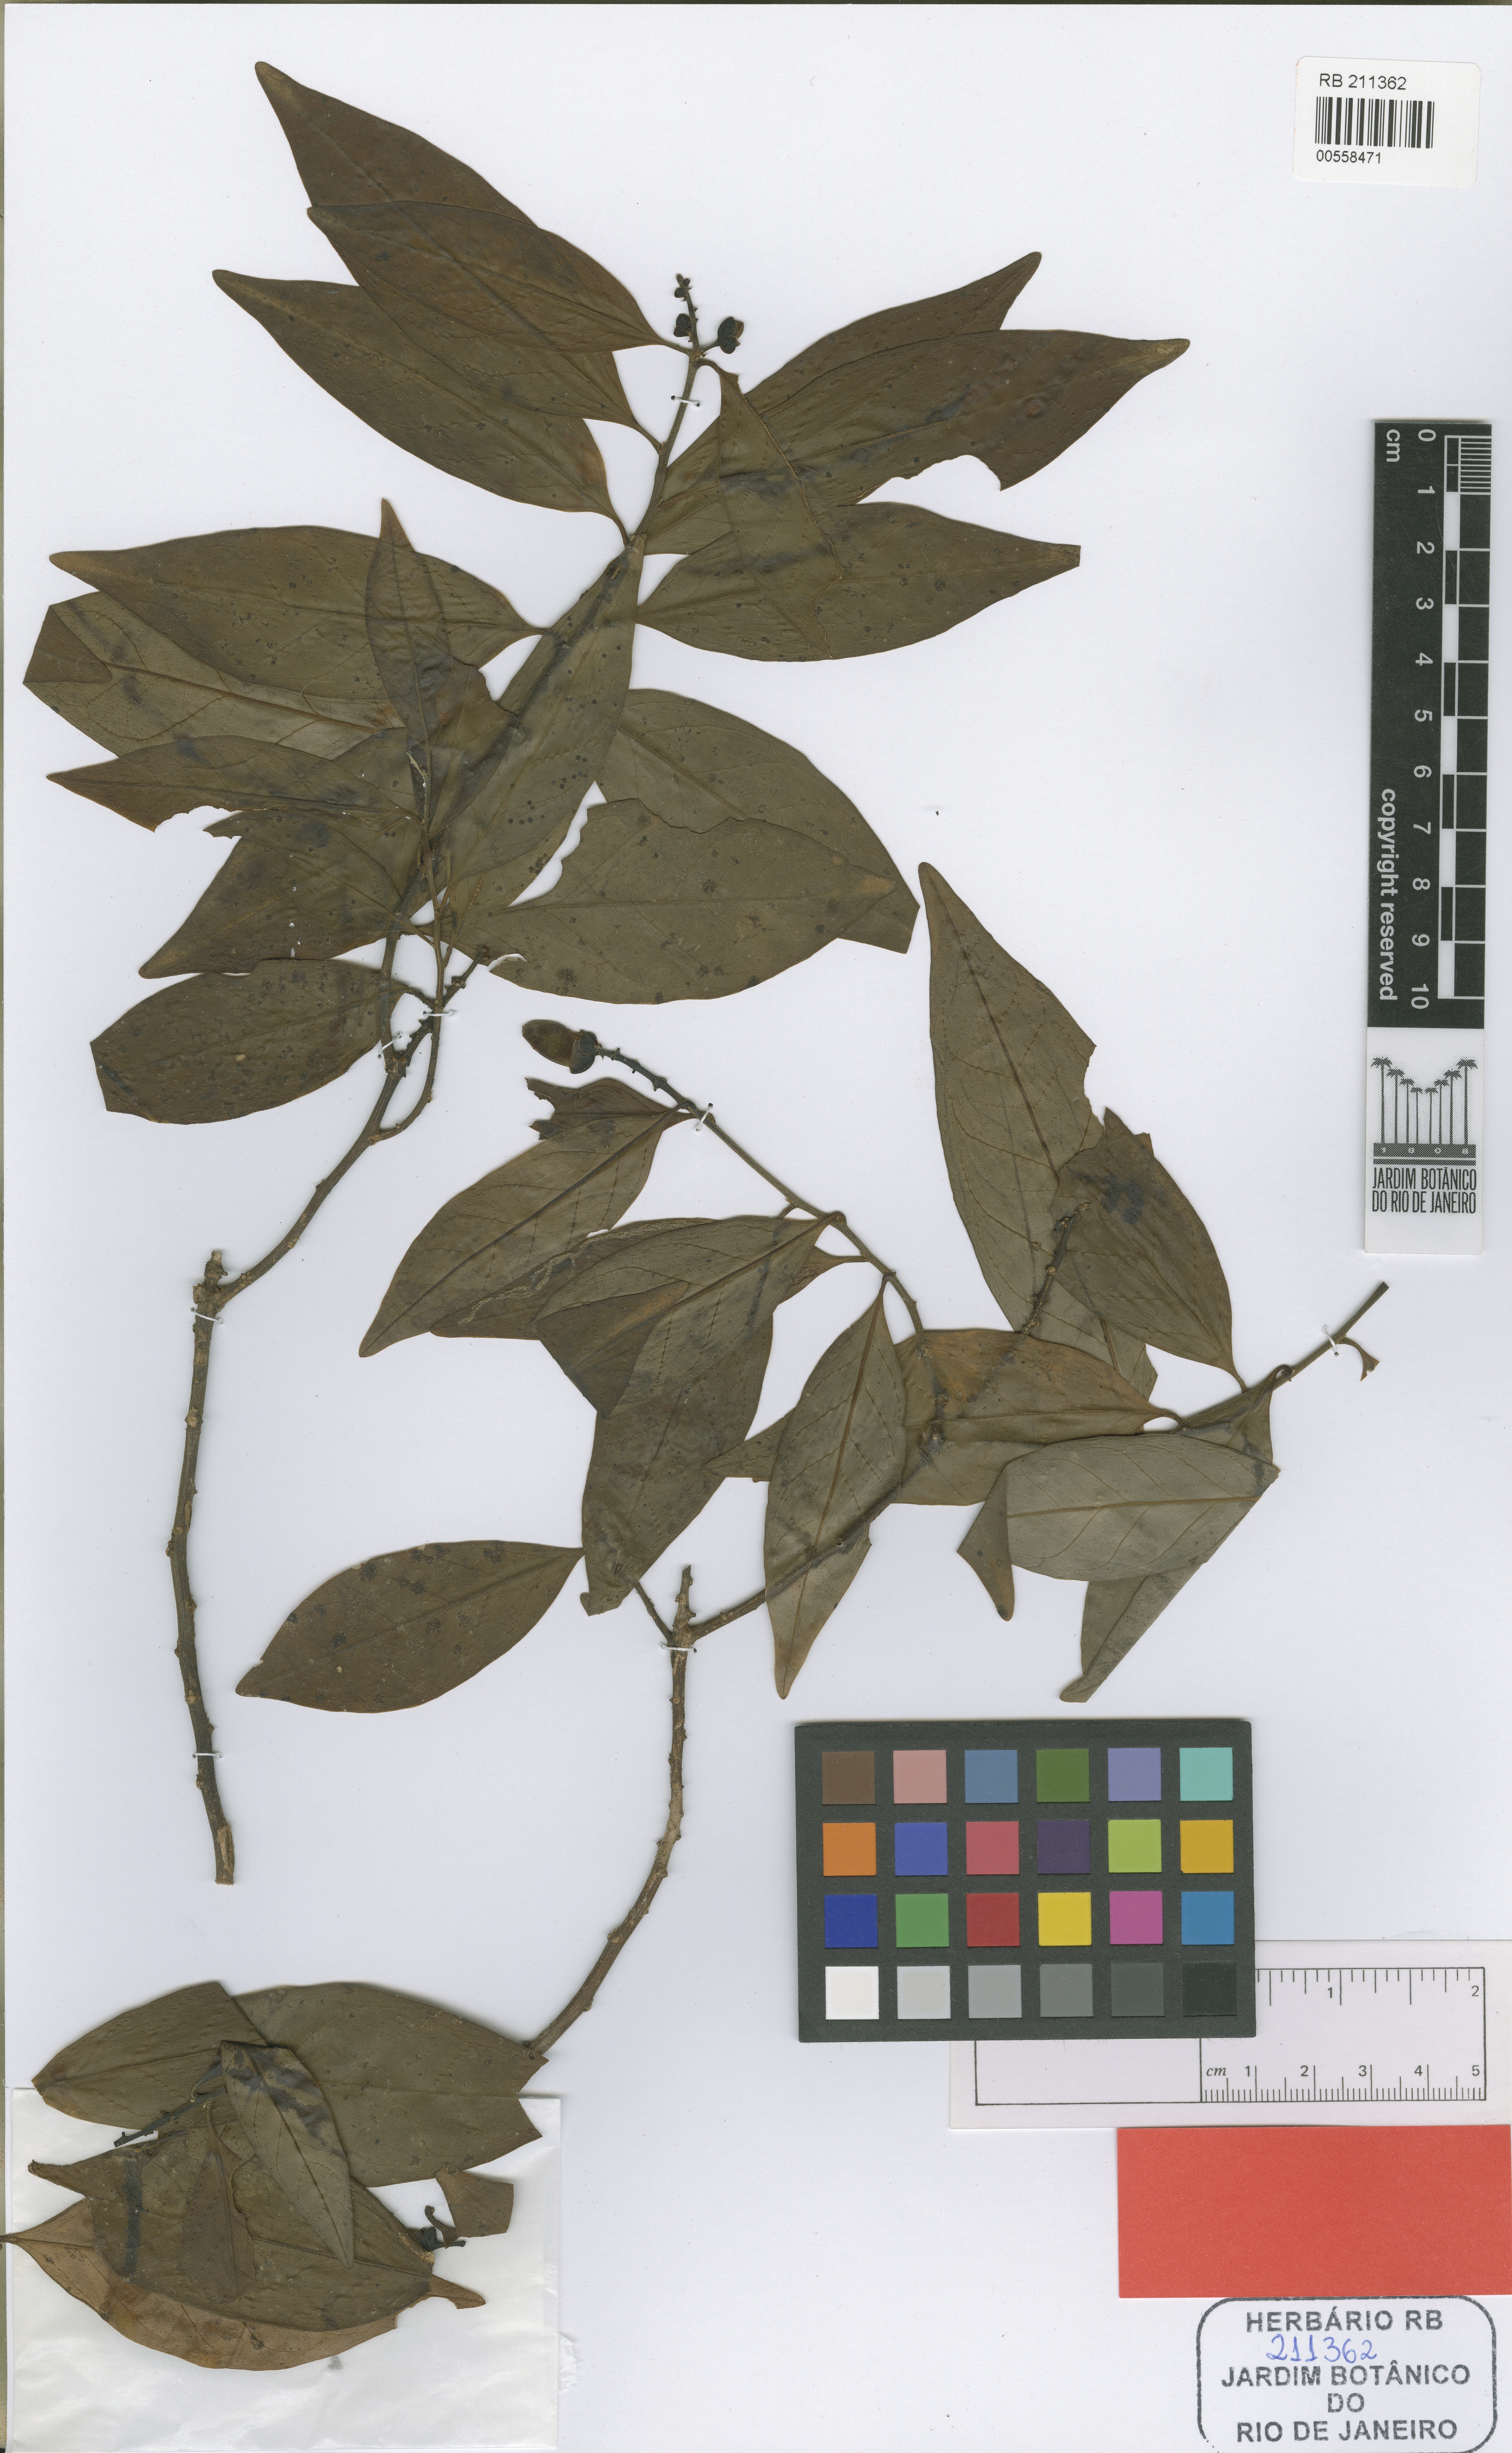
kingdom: Plantae
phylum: Tracheophyta
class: Magnoliopsida
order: Fabales
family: Polygalaceae
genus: Caamembeca
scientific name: Caamembeca martinellii
